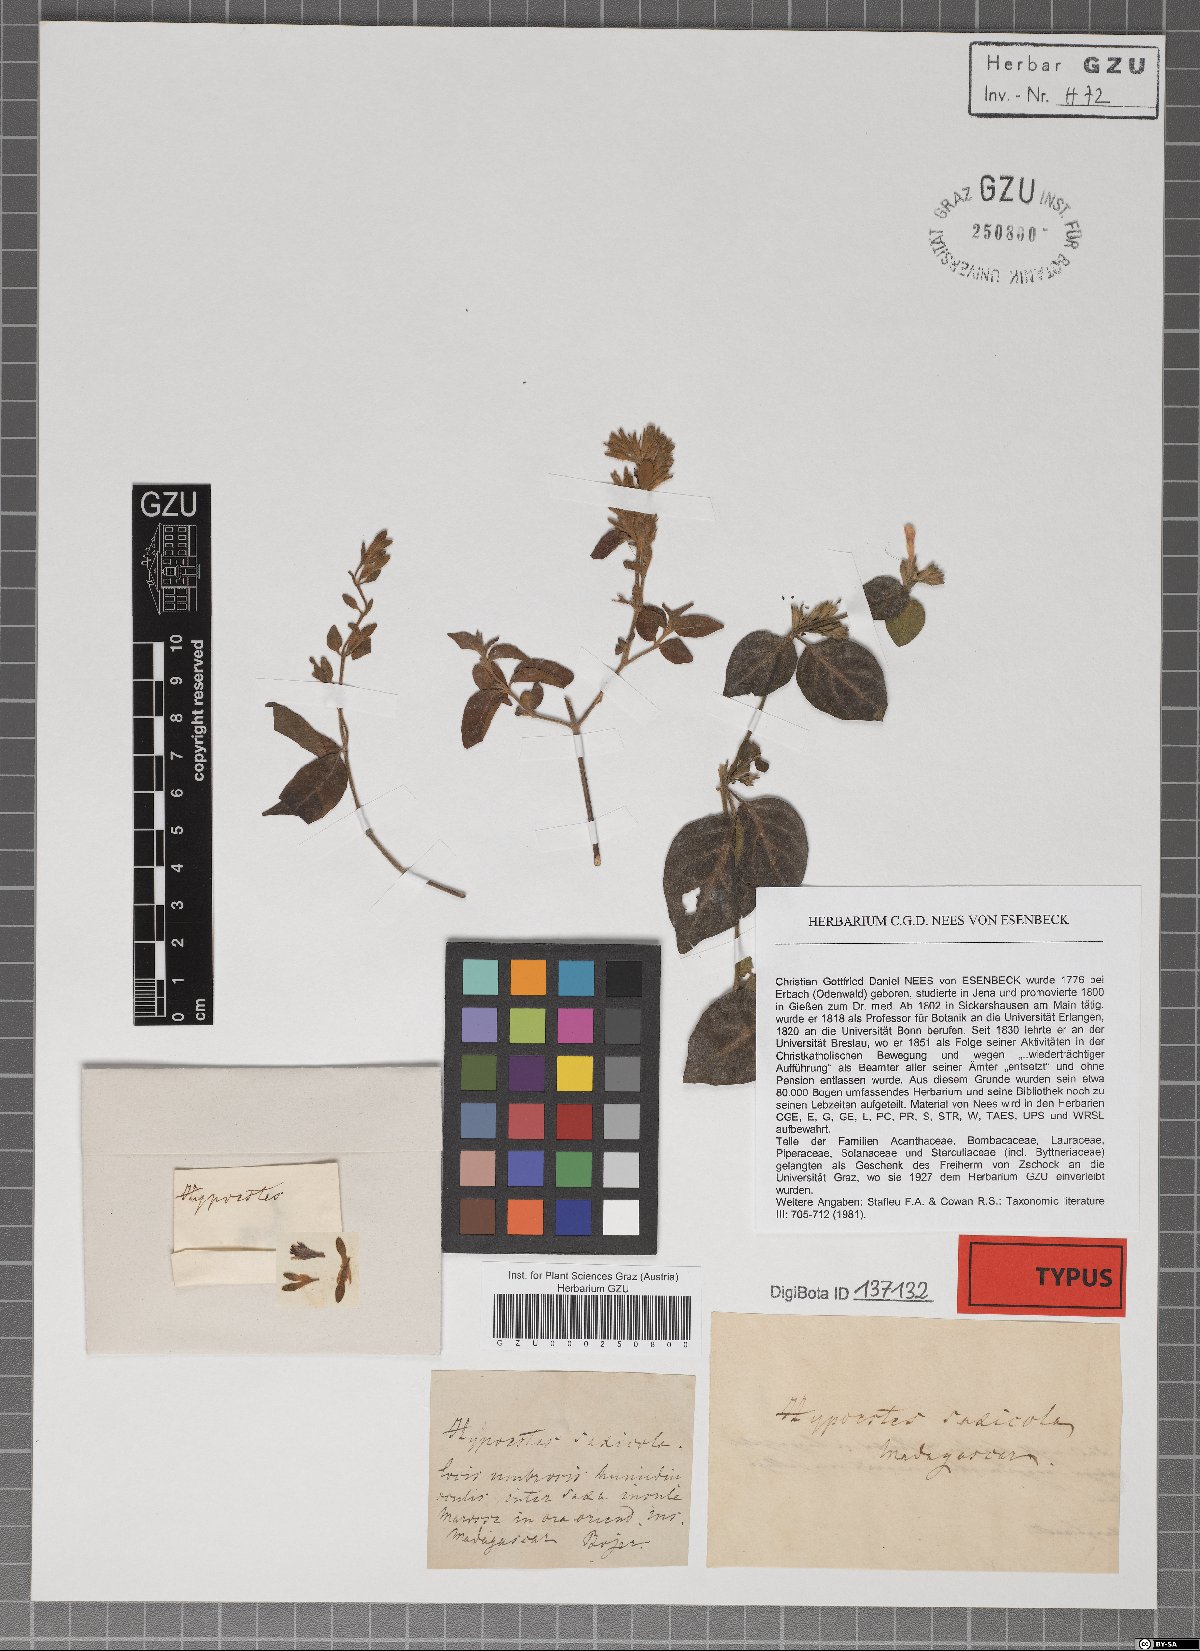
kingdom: Plantae
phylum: Tracheophyta
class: Magnoliopsida
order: Lamiales
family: Acanthaceae
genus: Hypoestes
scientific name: Hypoestes saxicola
